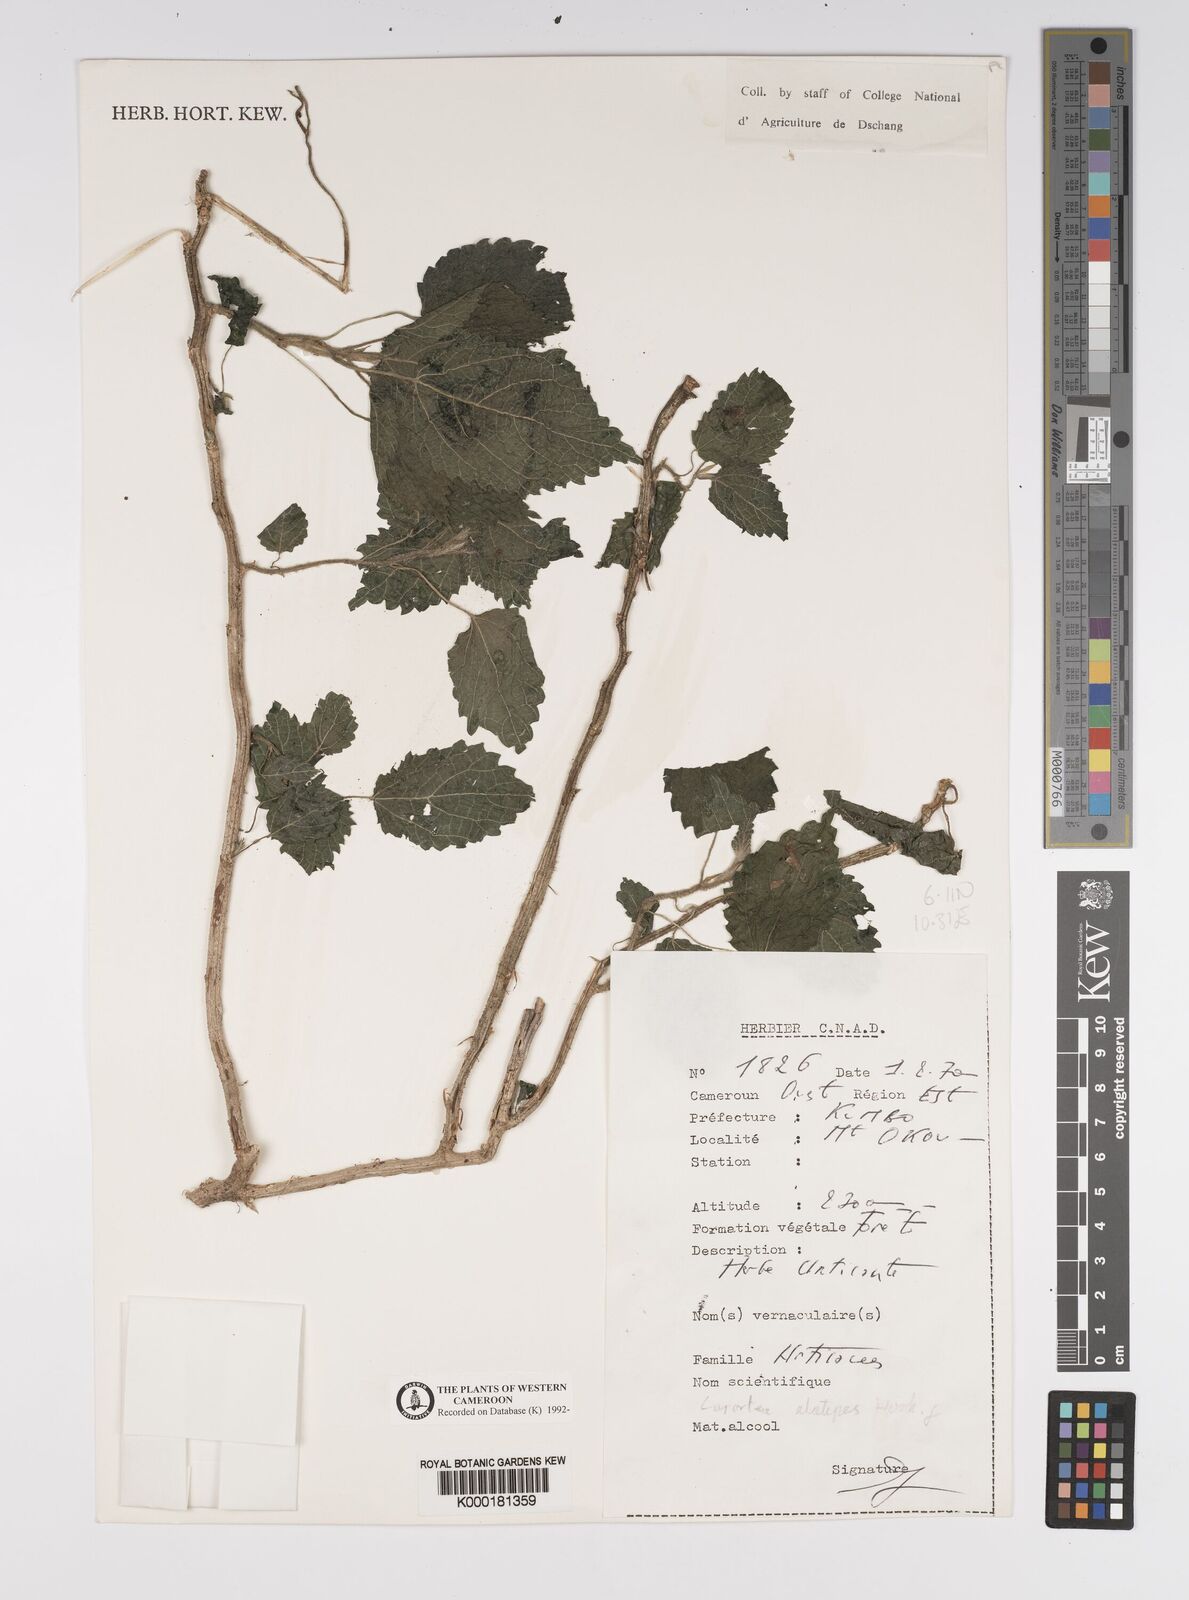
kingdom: Plantae
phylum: Tracheophyta
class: Magnoliopsida
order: Rosales
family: Urticaceae
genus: Laportea
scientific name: Laportea alatipes
